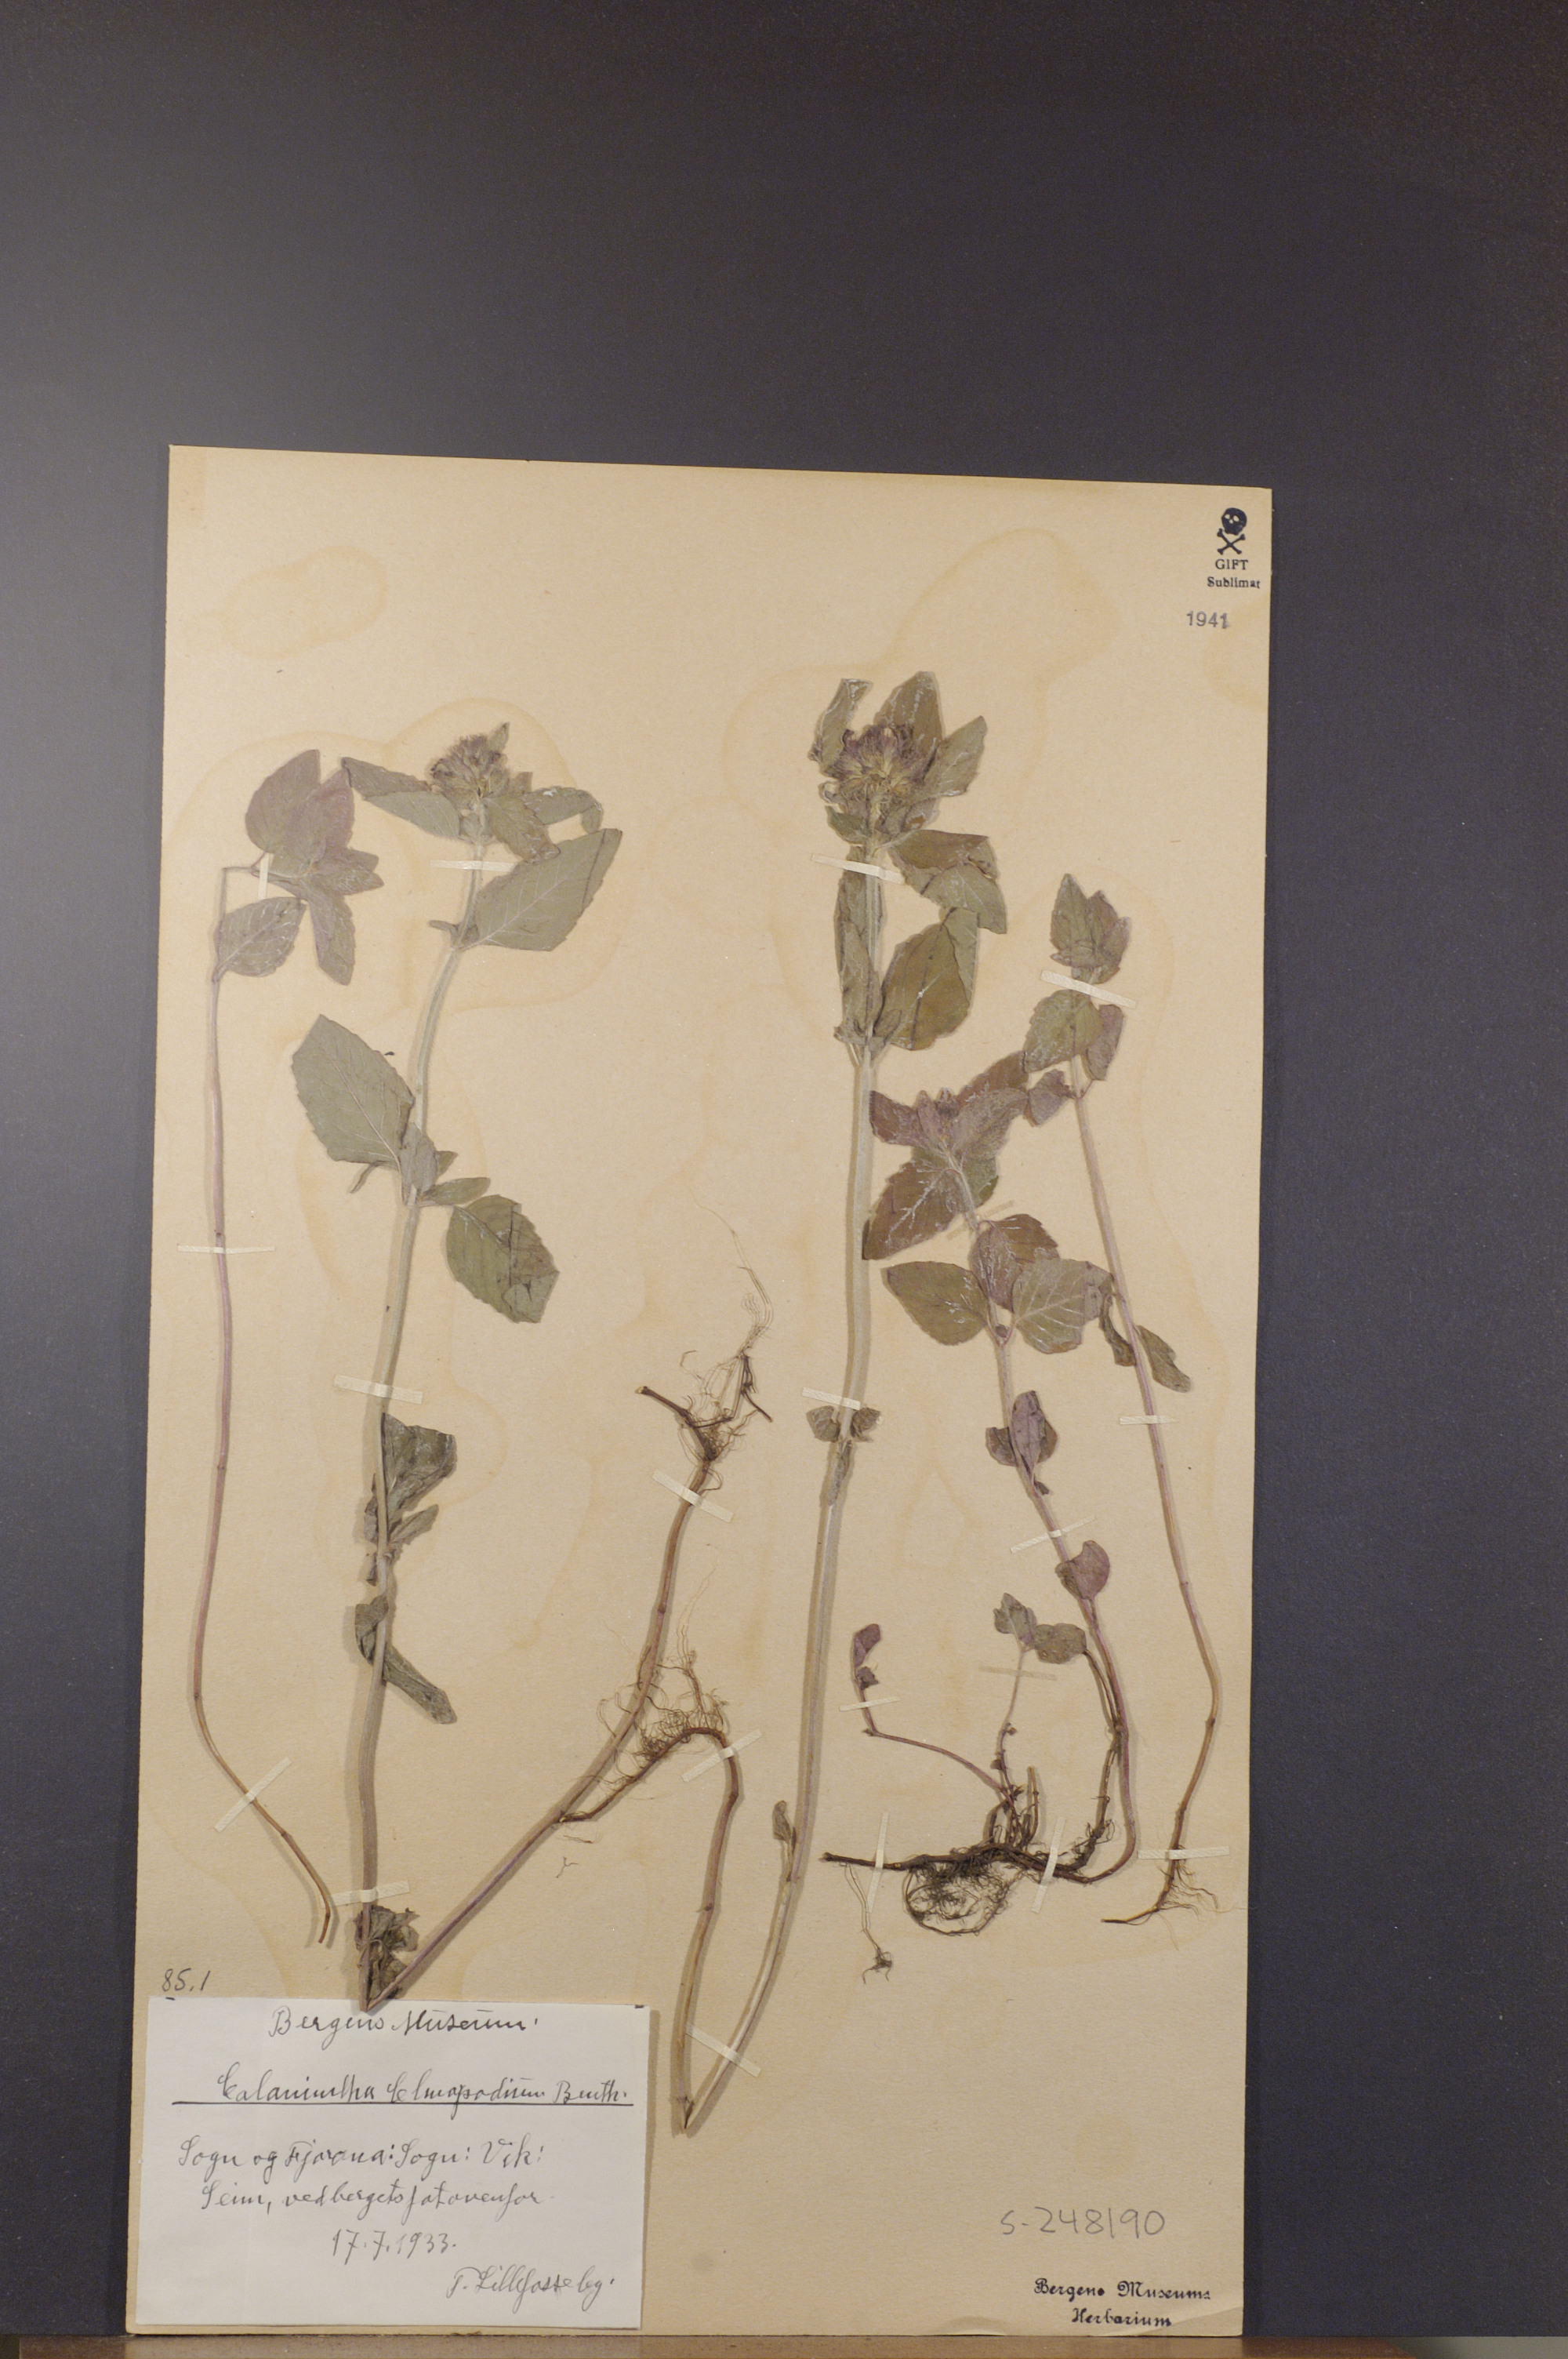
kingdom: Plantae
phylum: Tracheophyta
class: Magnoliopsida
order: Lamiales
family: Lamiaceae
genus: Clinopodium
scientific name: Clinopodium vulgare
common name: Wild basil
